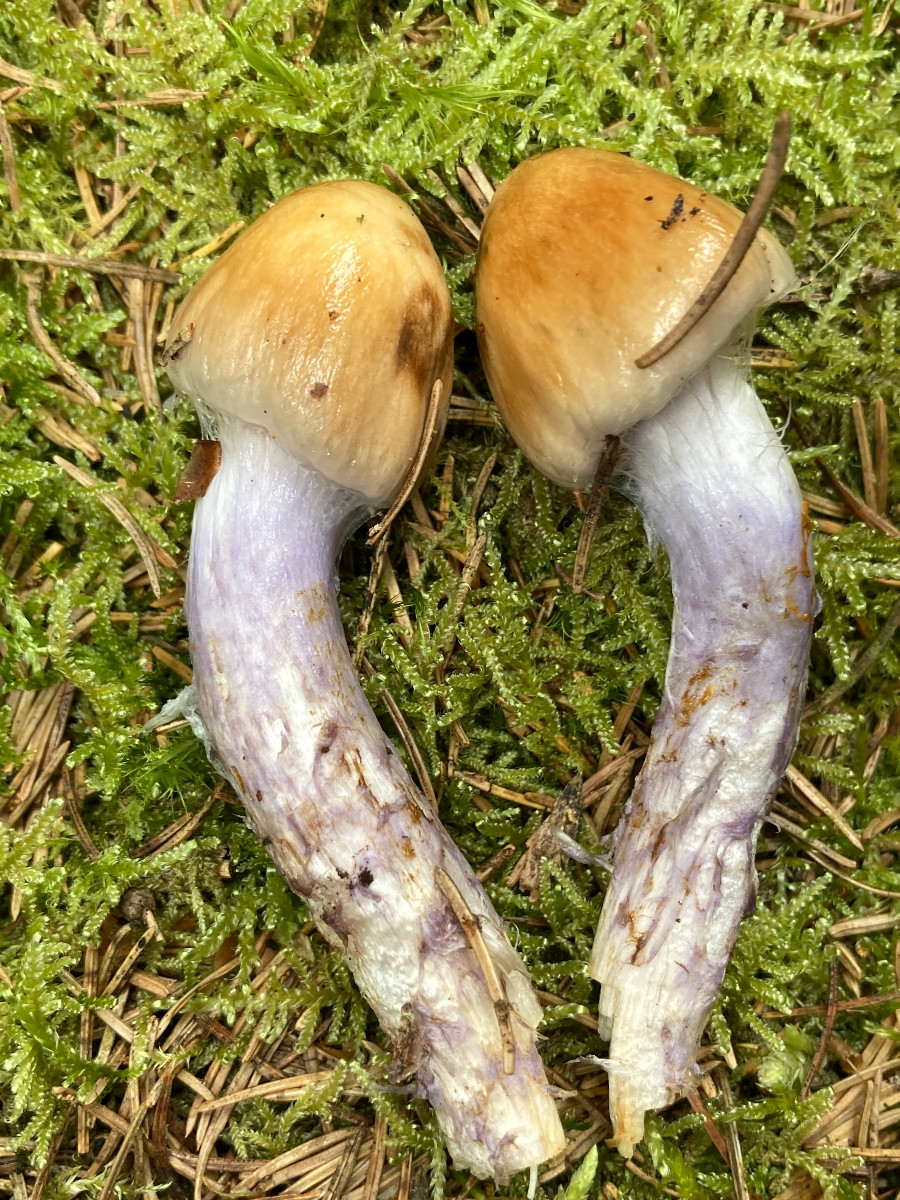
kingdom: Fungi
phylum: Basidiomycota
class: Agaricomycetes
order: Agaricales
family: Cortinariaceae
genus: Cortinarius
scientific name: Cortinarius stillatitius
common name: honningduftende slørhat
